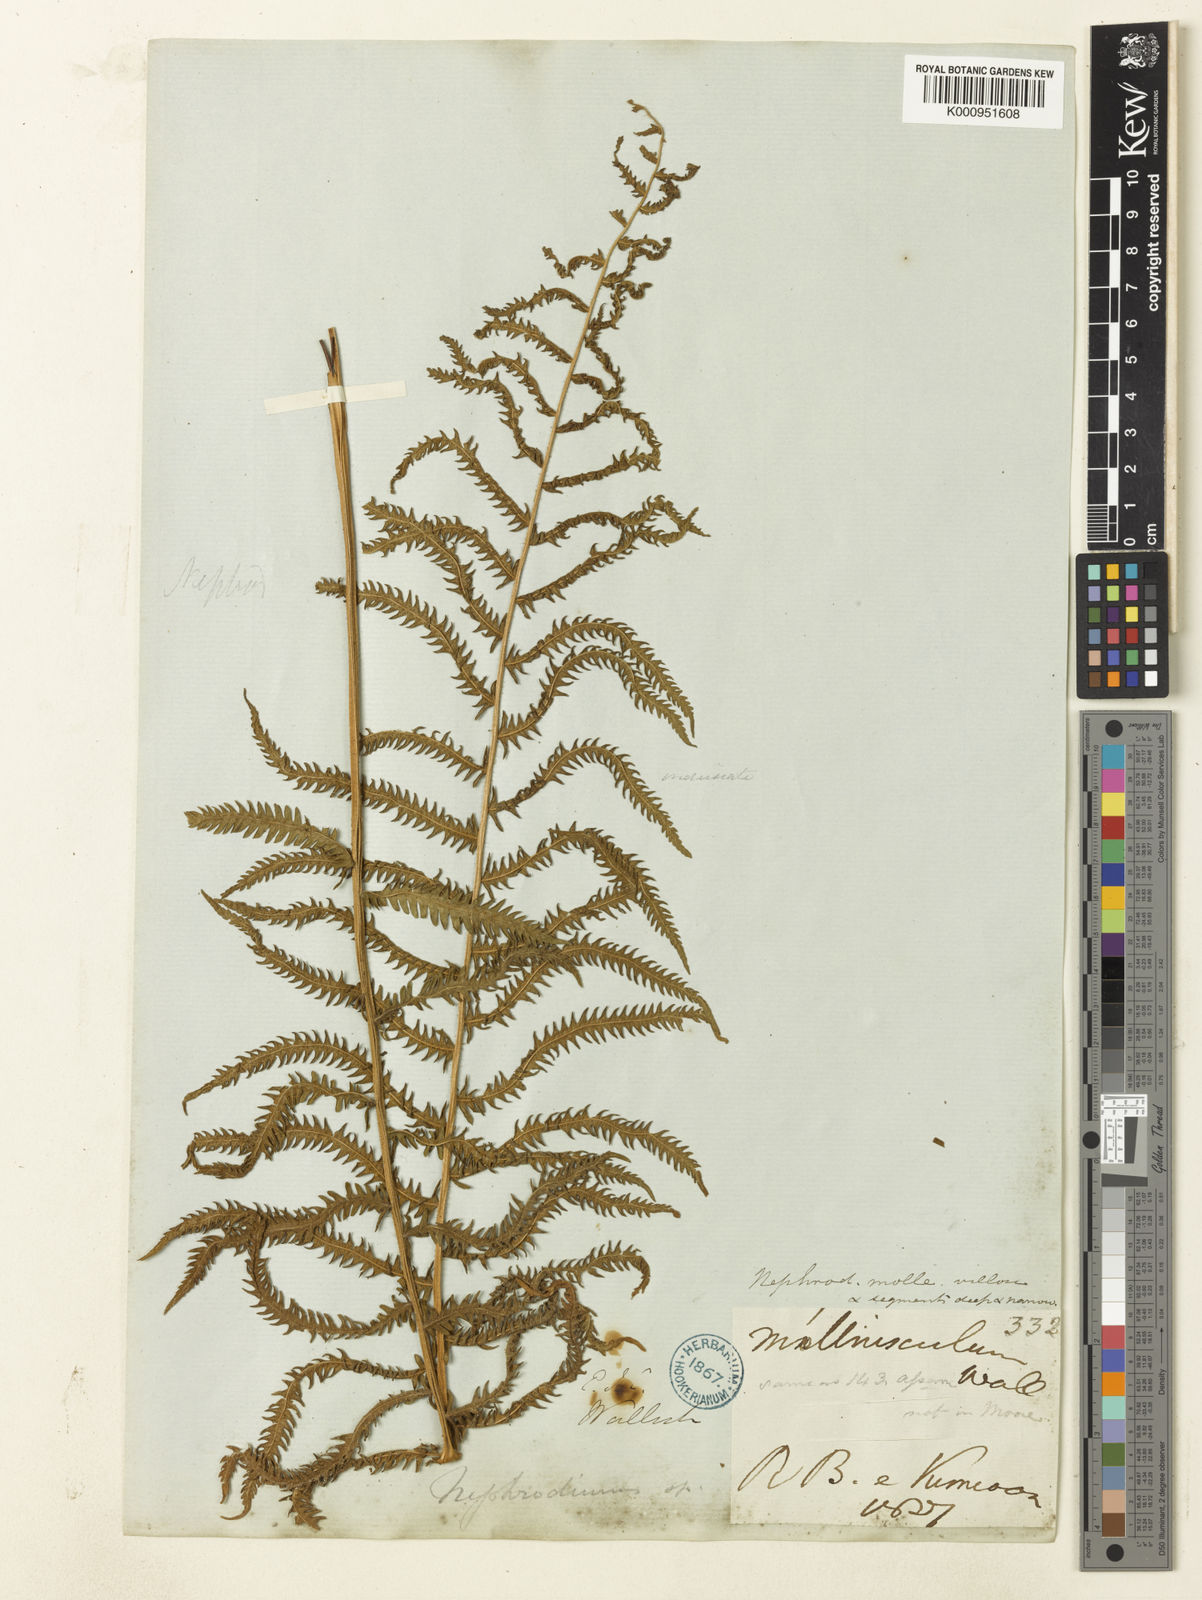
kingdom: Plantae
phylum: Tracheophyta
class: Polypodiopsida
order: Polypodiales
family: Thelypteridaceae
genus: Christella
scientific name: Christella procera
